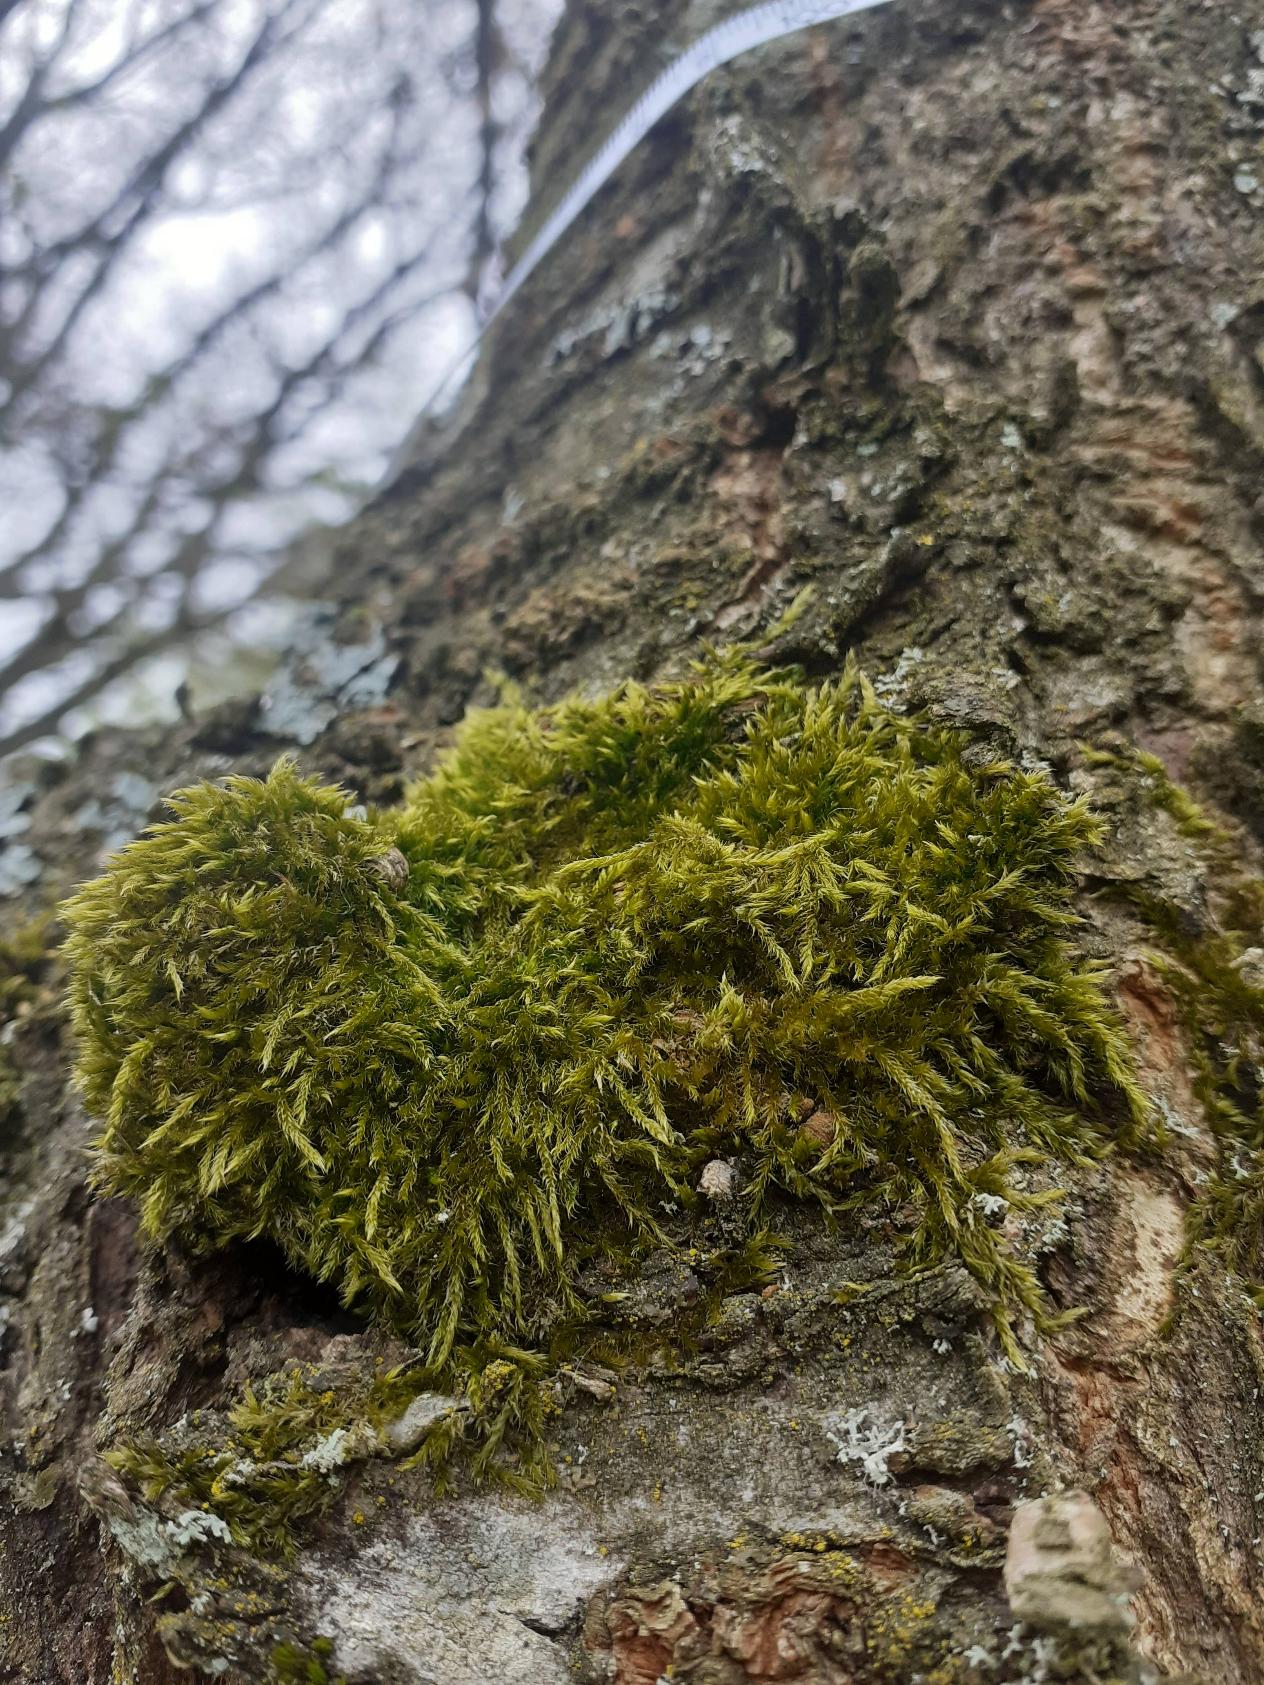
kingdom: Plantae
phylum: Bryophyta
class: Bryopsida
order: Hypnales
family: Hypnaceae
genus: Hypnum
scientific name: Hypnum cupressiforme
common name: Almindelig cypresmos
